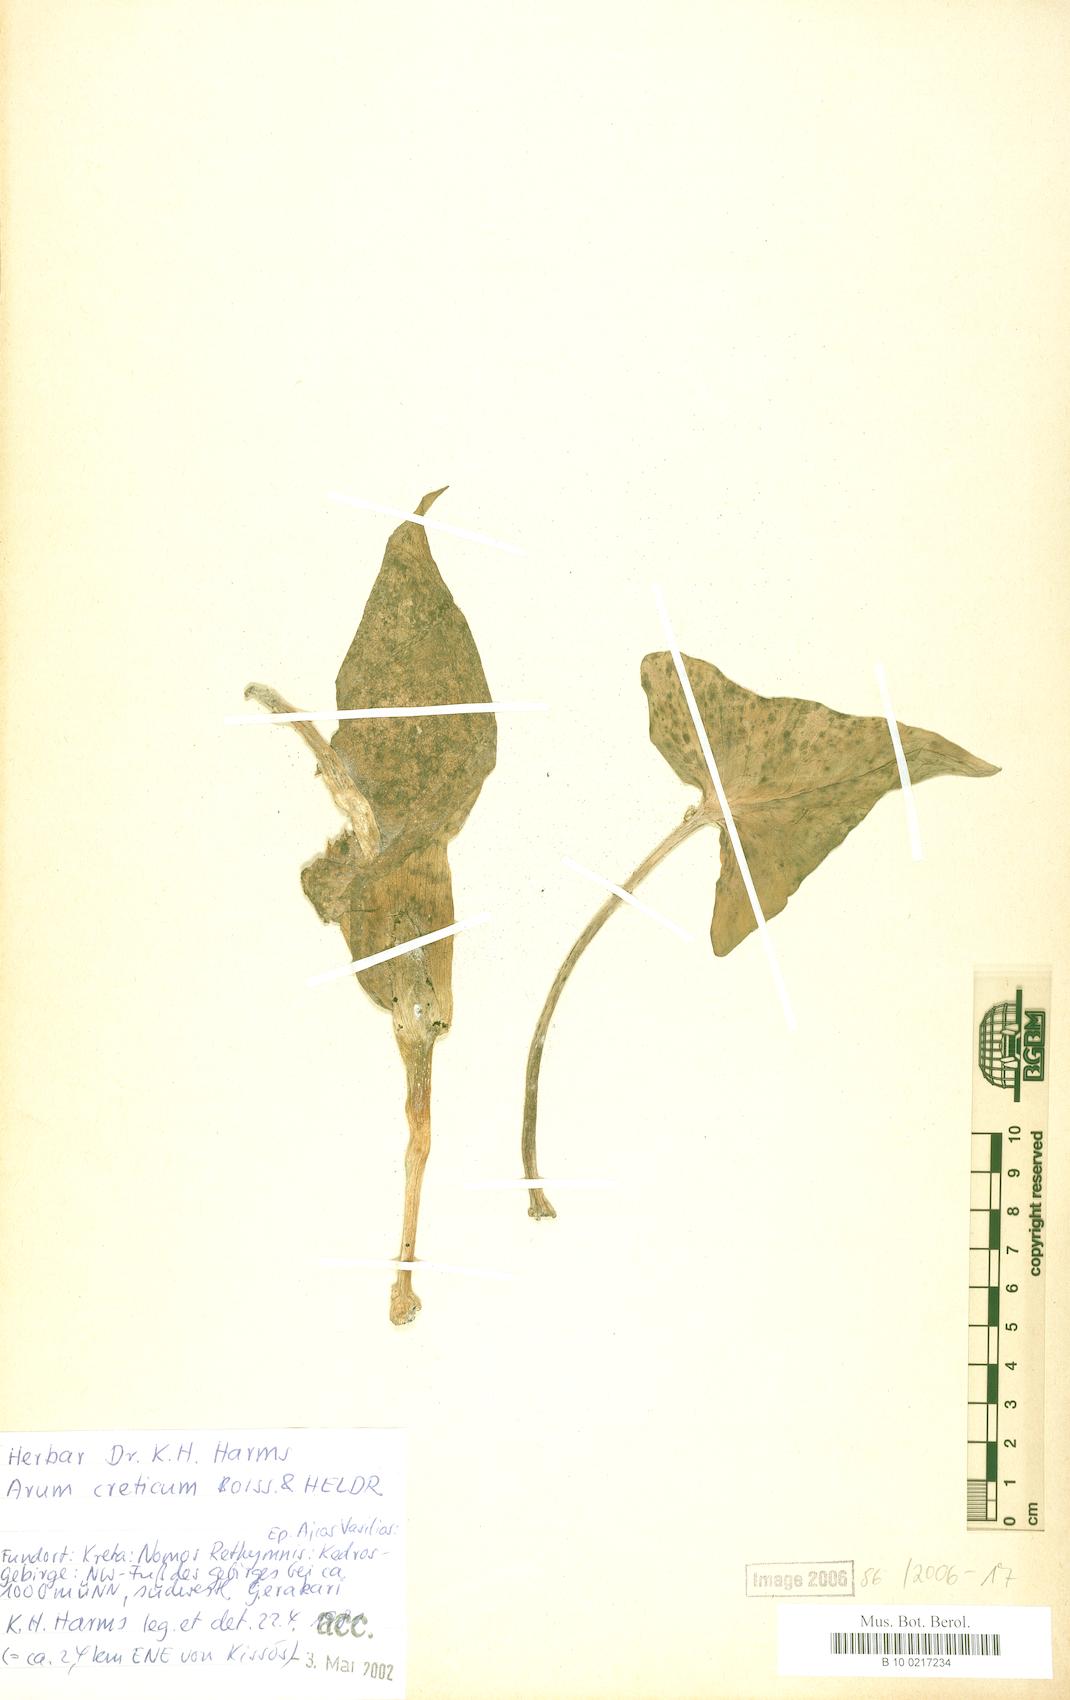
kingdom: Plantae
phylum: Tracheophyta
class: Liliopsida
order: Alismatales
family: Araceae
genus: Arum
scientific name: Arum creticum
